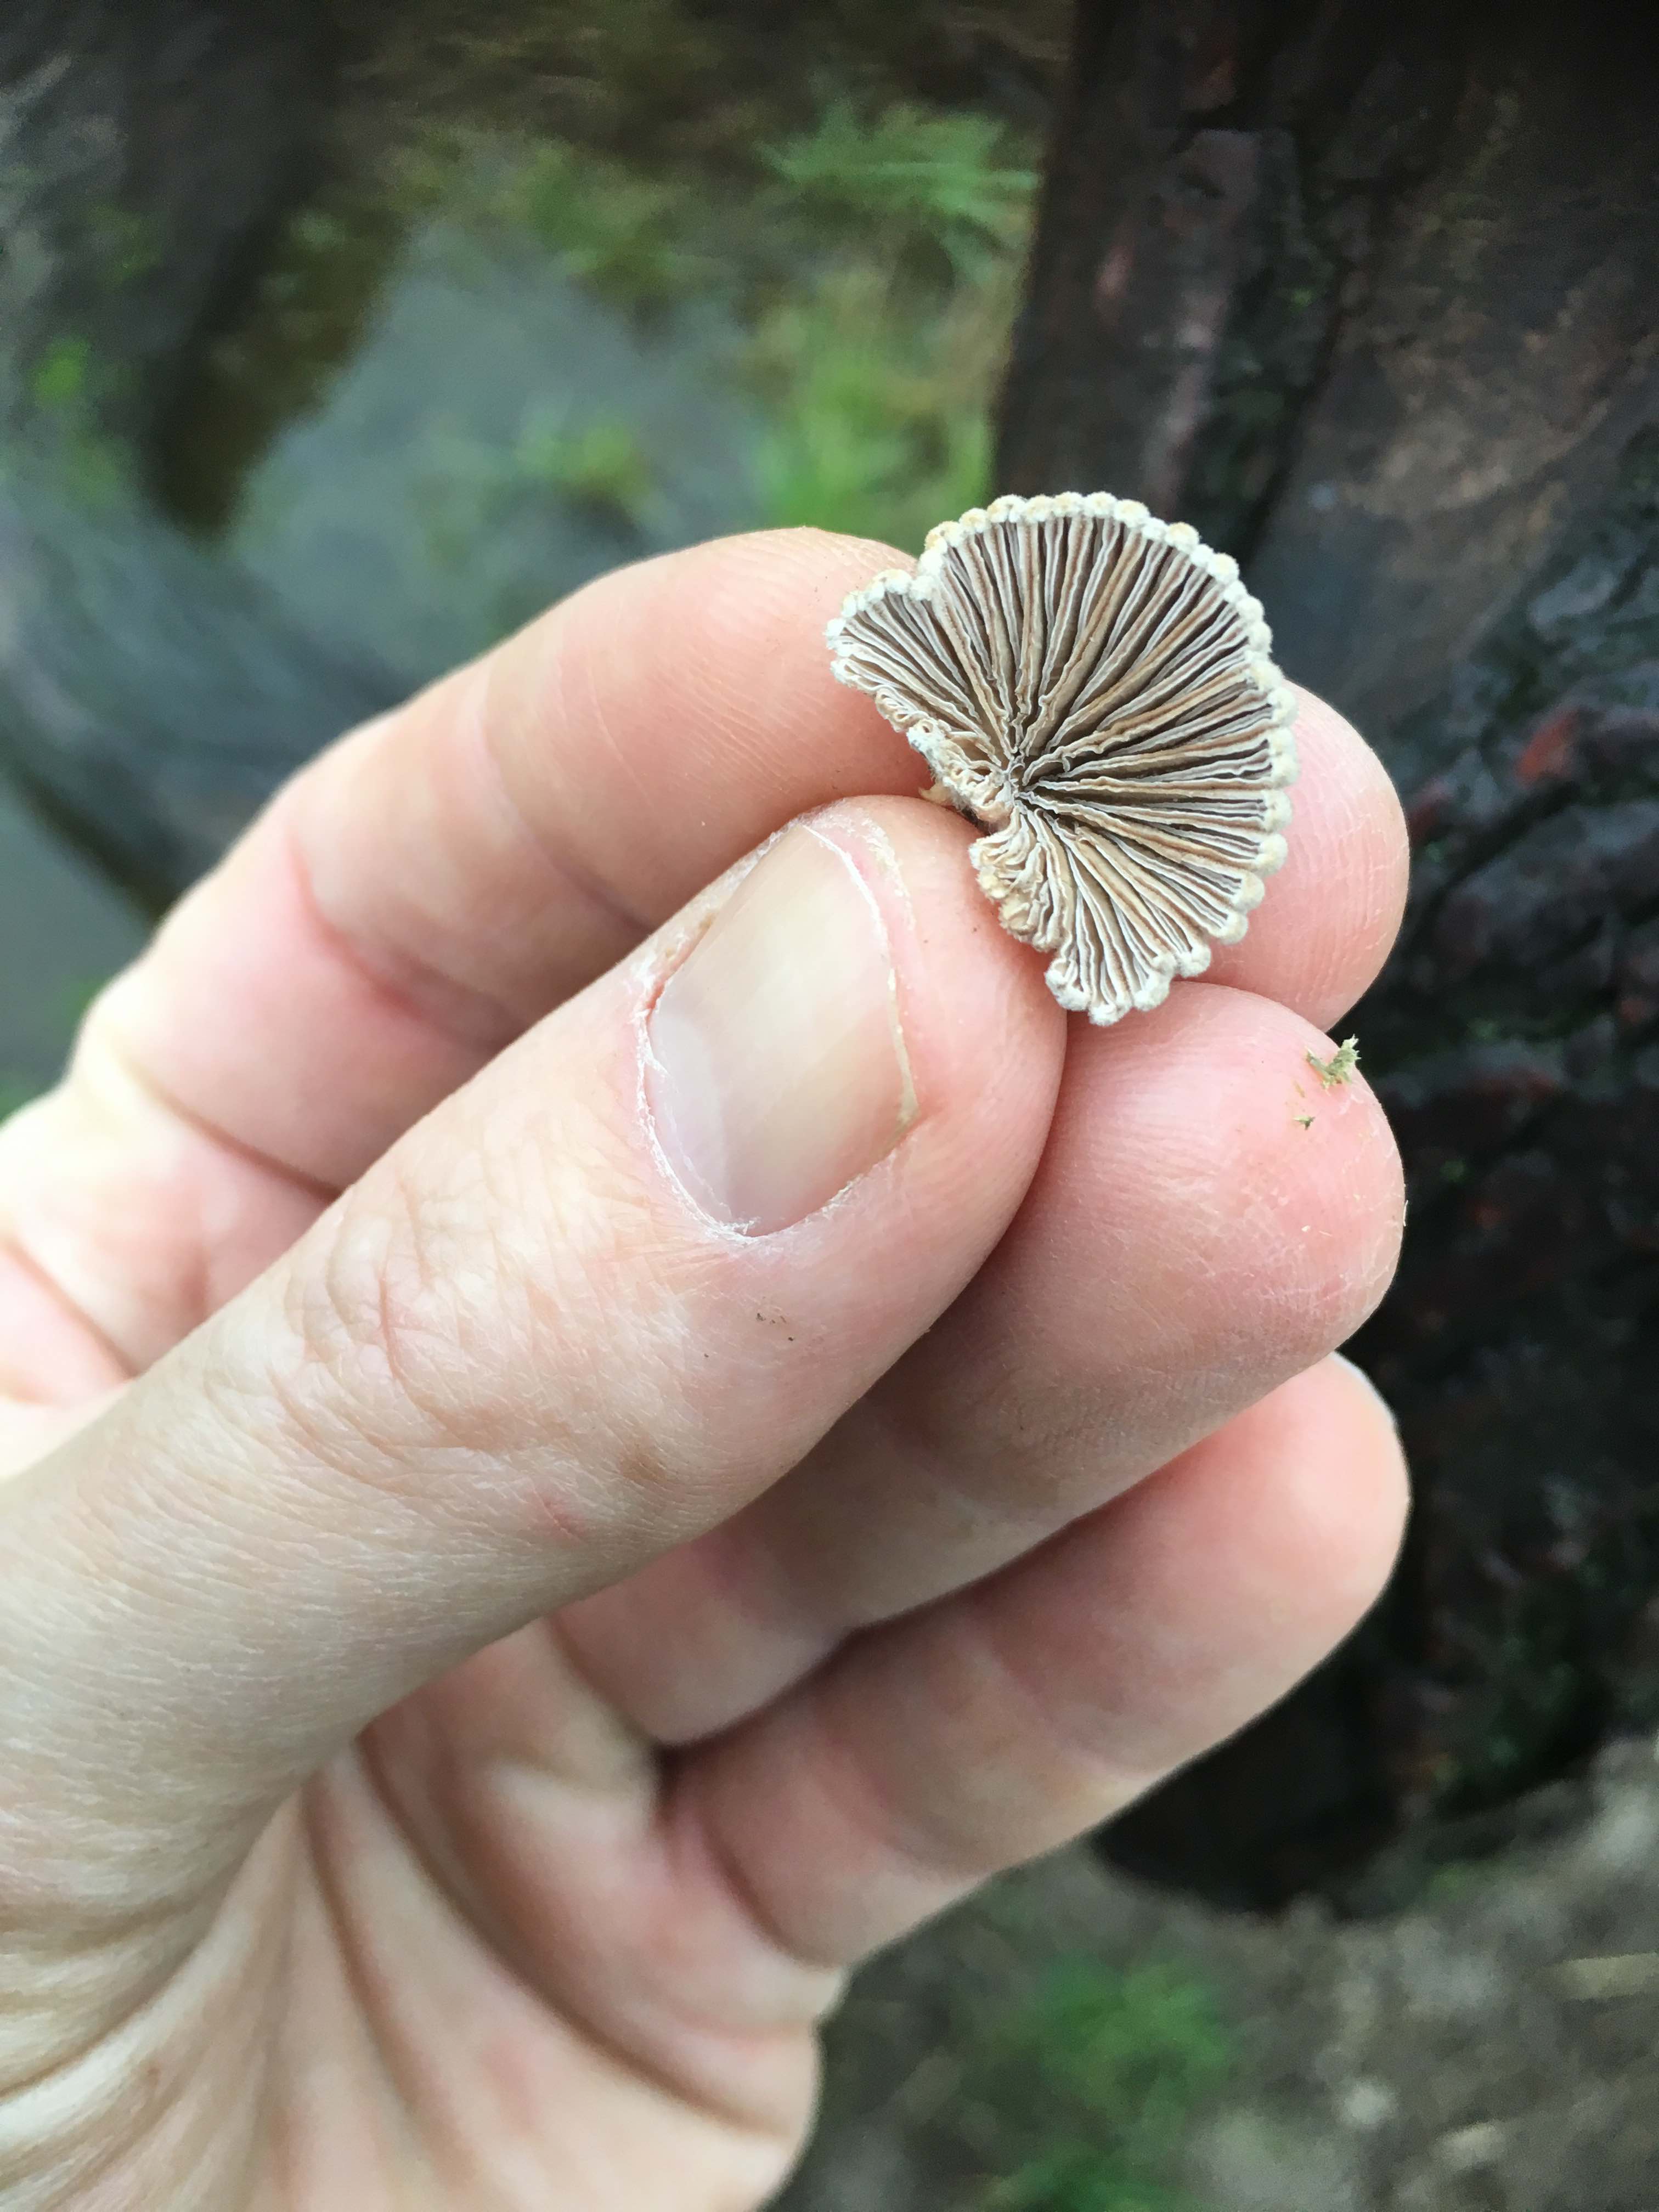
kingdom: Fungi
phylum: Basidiomycota
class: Agaricomycetes
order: Agaricales
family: Schizophyllaceae
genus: Schizophyllum
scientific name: Schizophyllum commune
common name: kløvblad
